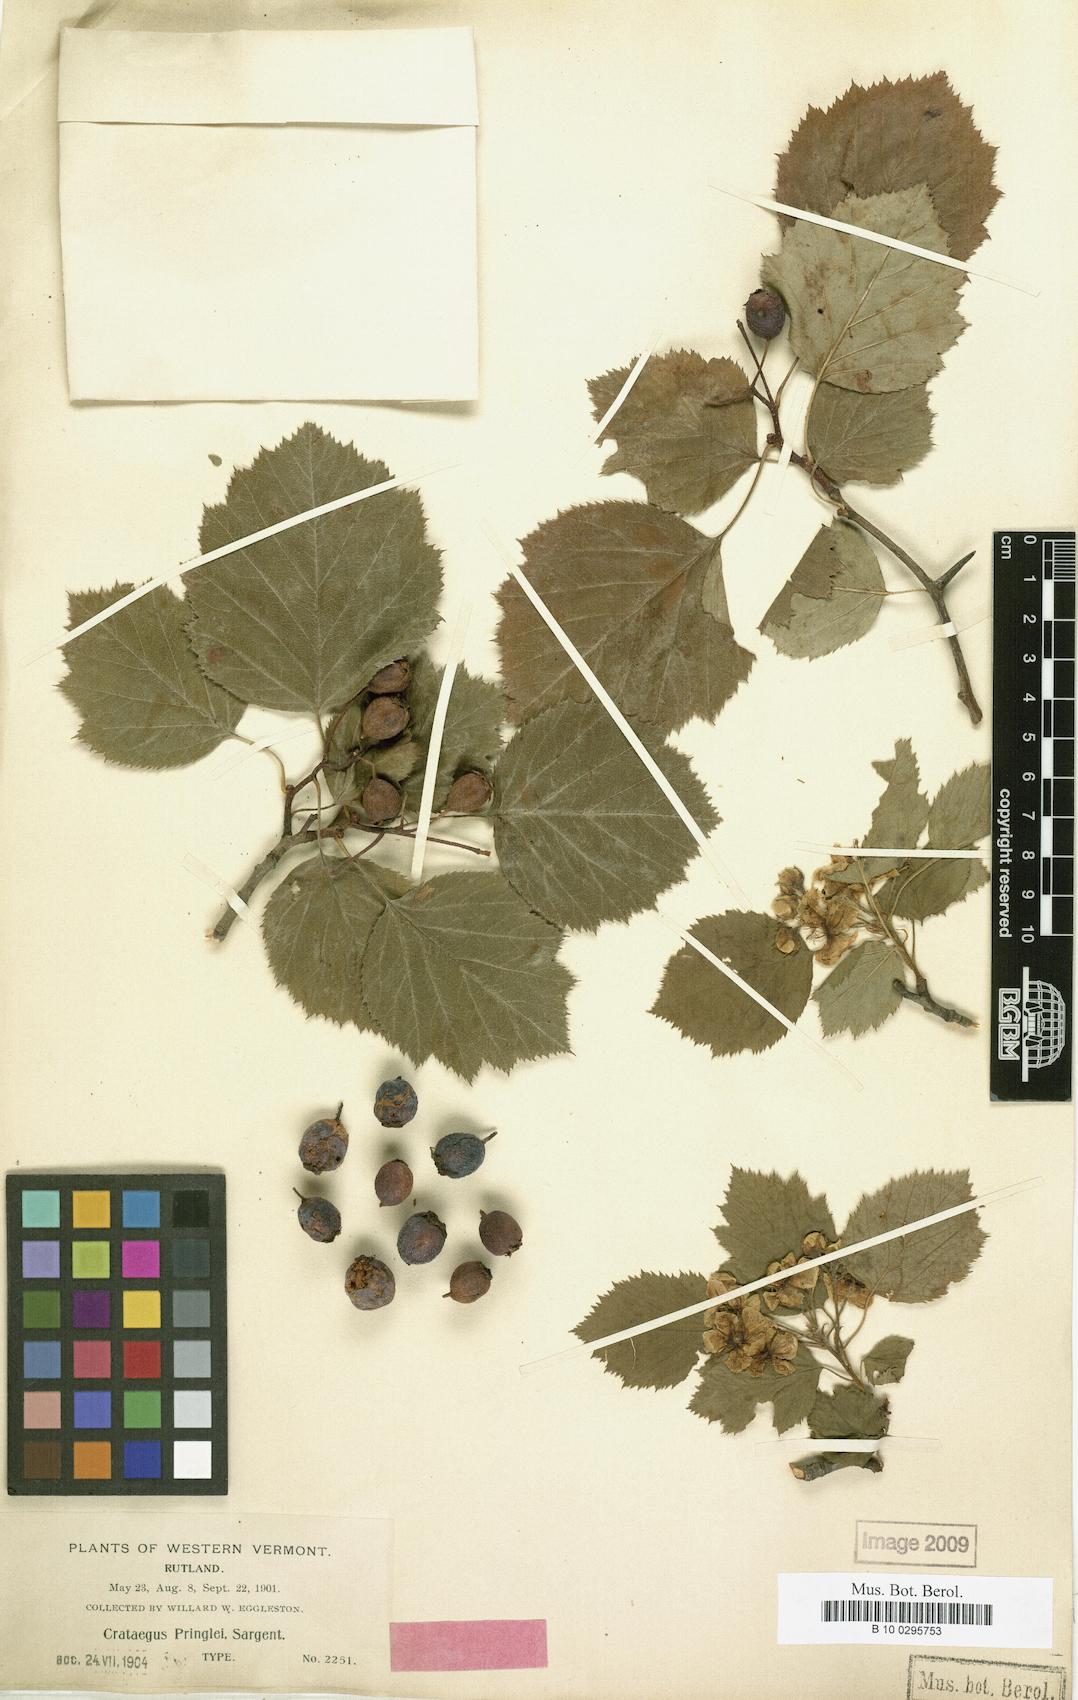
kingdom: Plantae
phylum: Tracheophyta
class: Magnoliopsida
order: Rosales
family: Rosaceae
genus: Crataegus
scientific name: Crataegus coccinea
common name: Scarlet hawthorn
